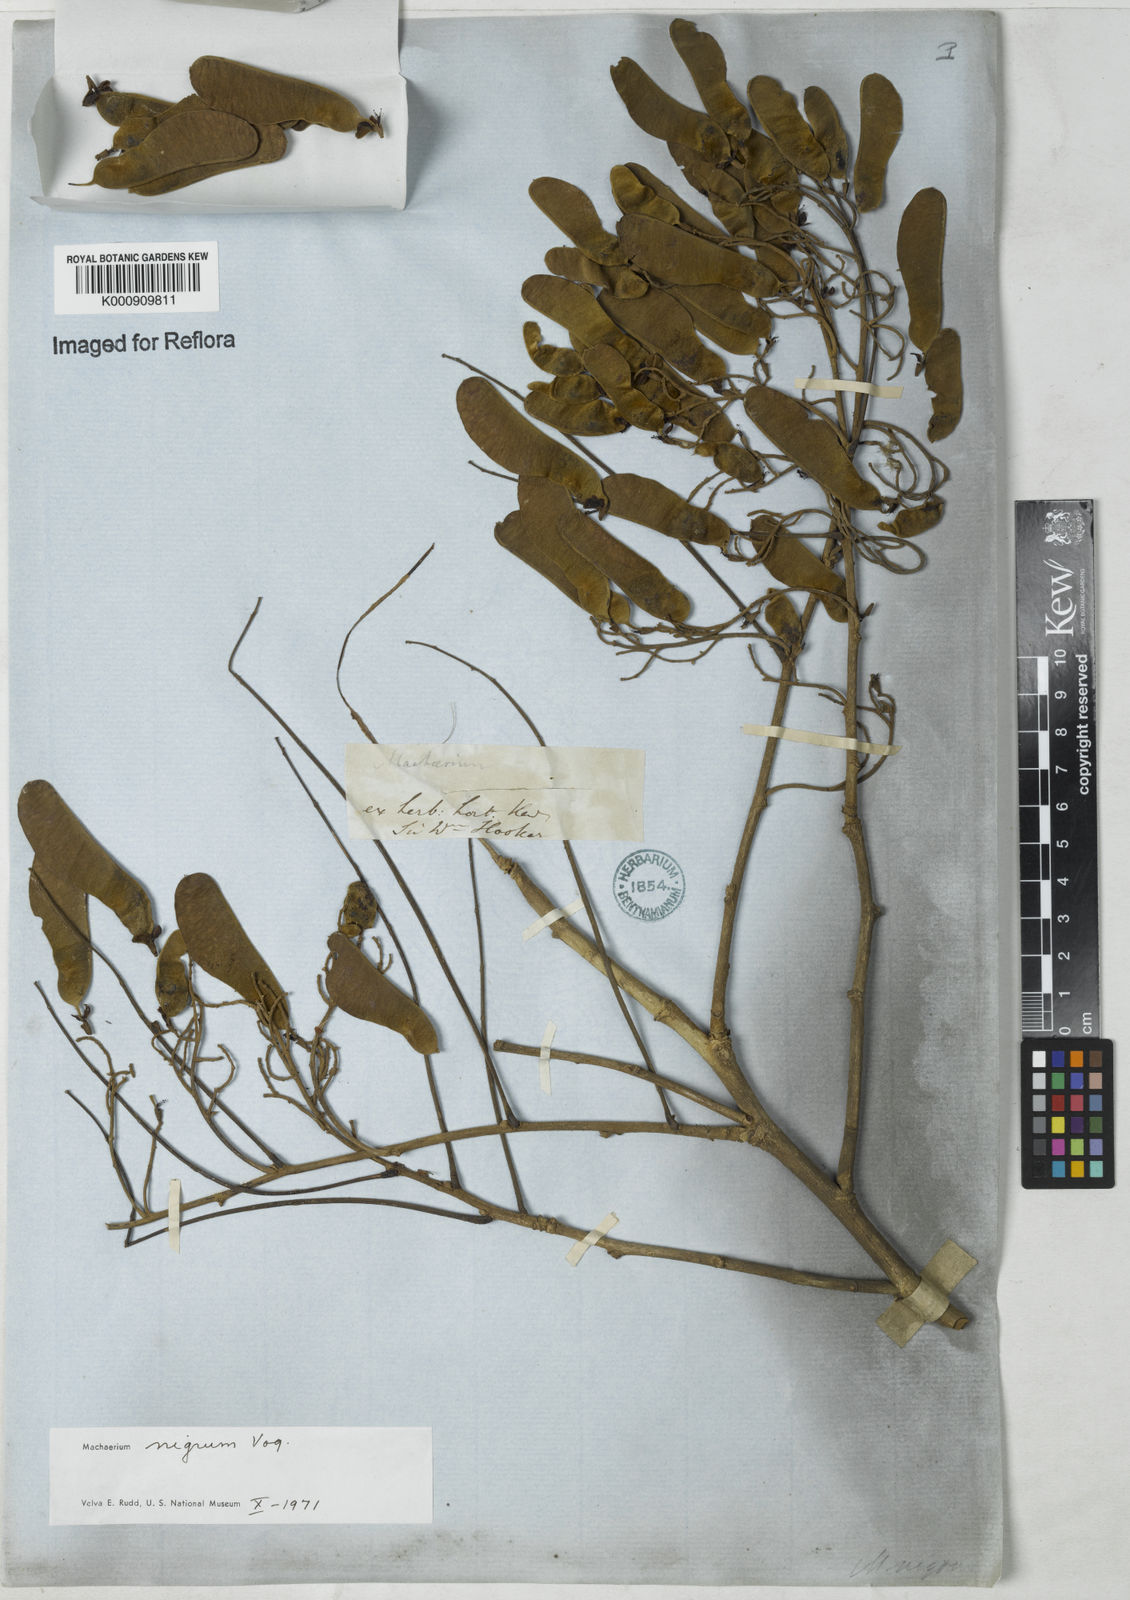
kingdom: Plantae
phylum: Tracheophyta
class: Magnoliopsida
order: Fabales
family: Fabaceae
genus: Machaerium
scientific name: Machaerium nigrum
